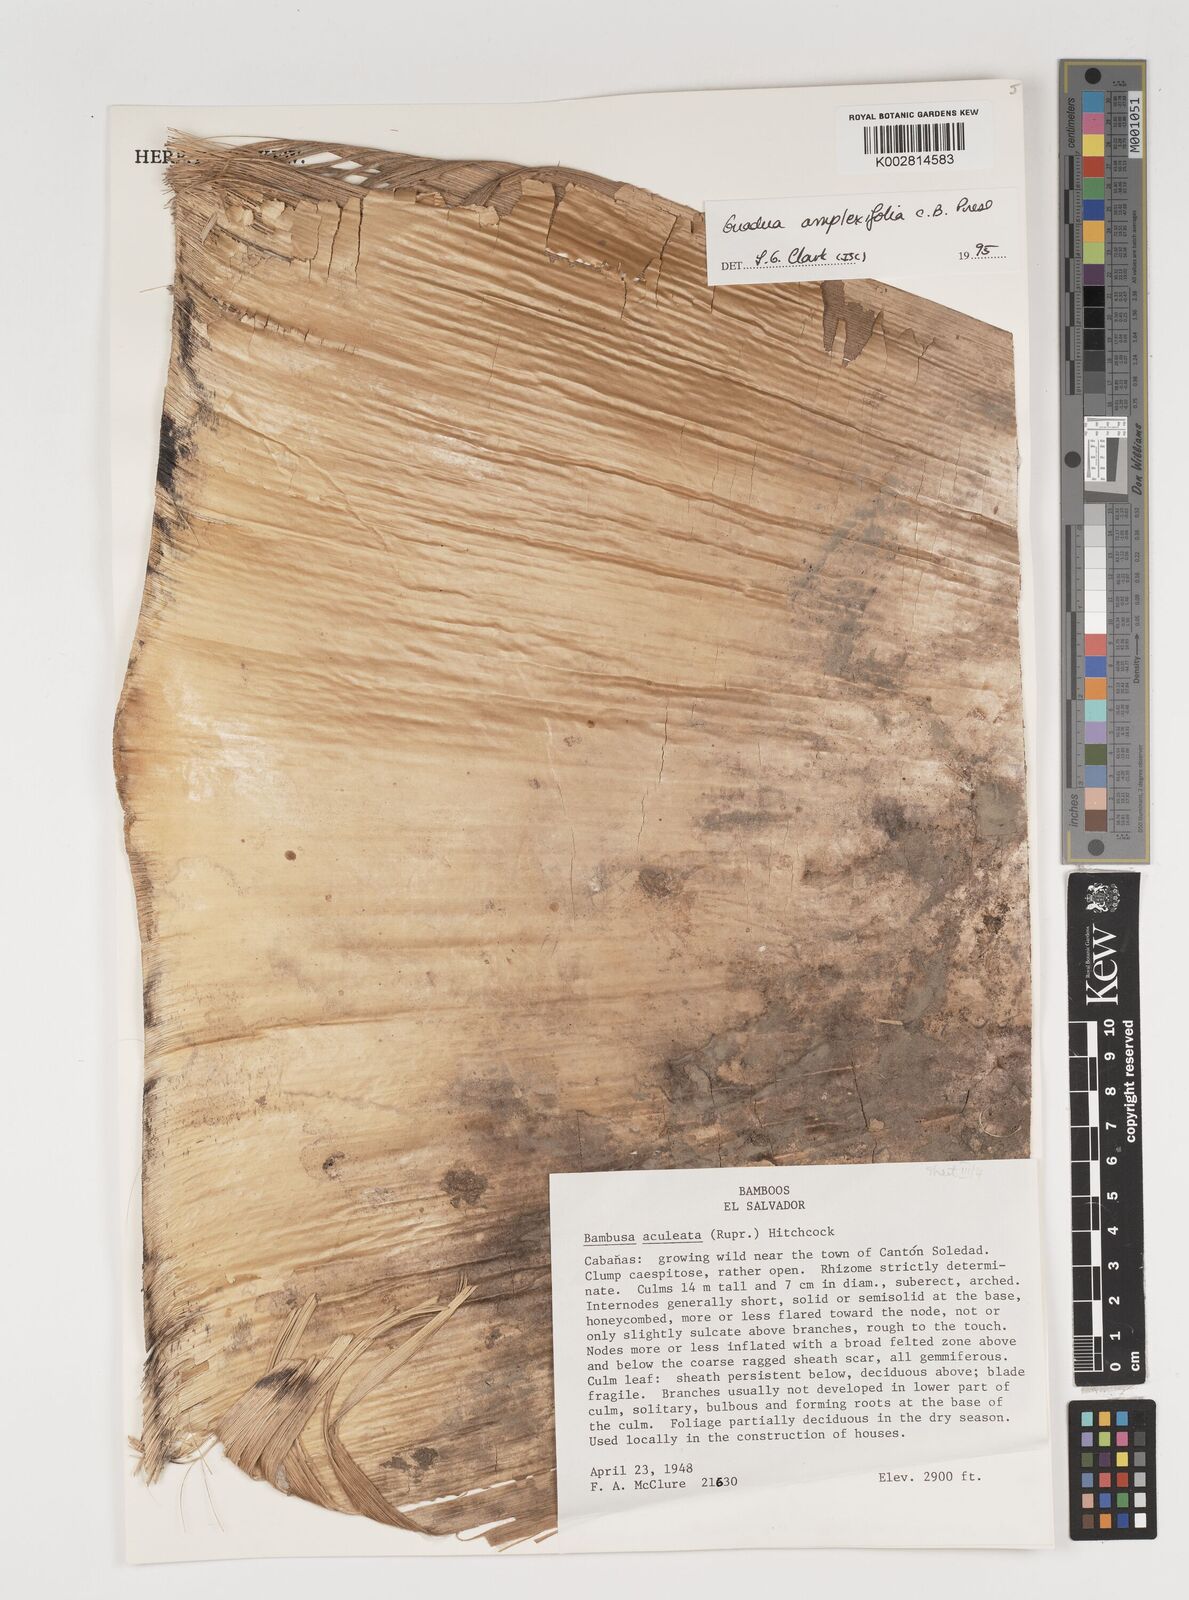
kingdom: Plantae
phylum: Tracheophyta
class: Liliopsida
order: Poales
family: Poaceae
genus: Guadua
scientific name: Guadua amplexifolia
